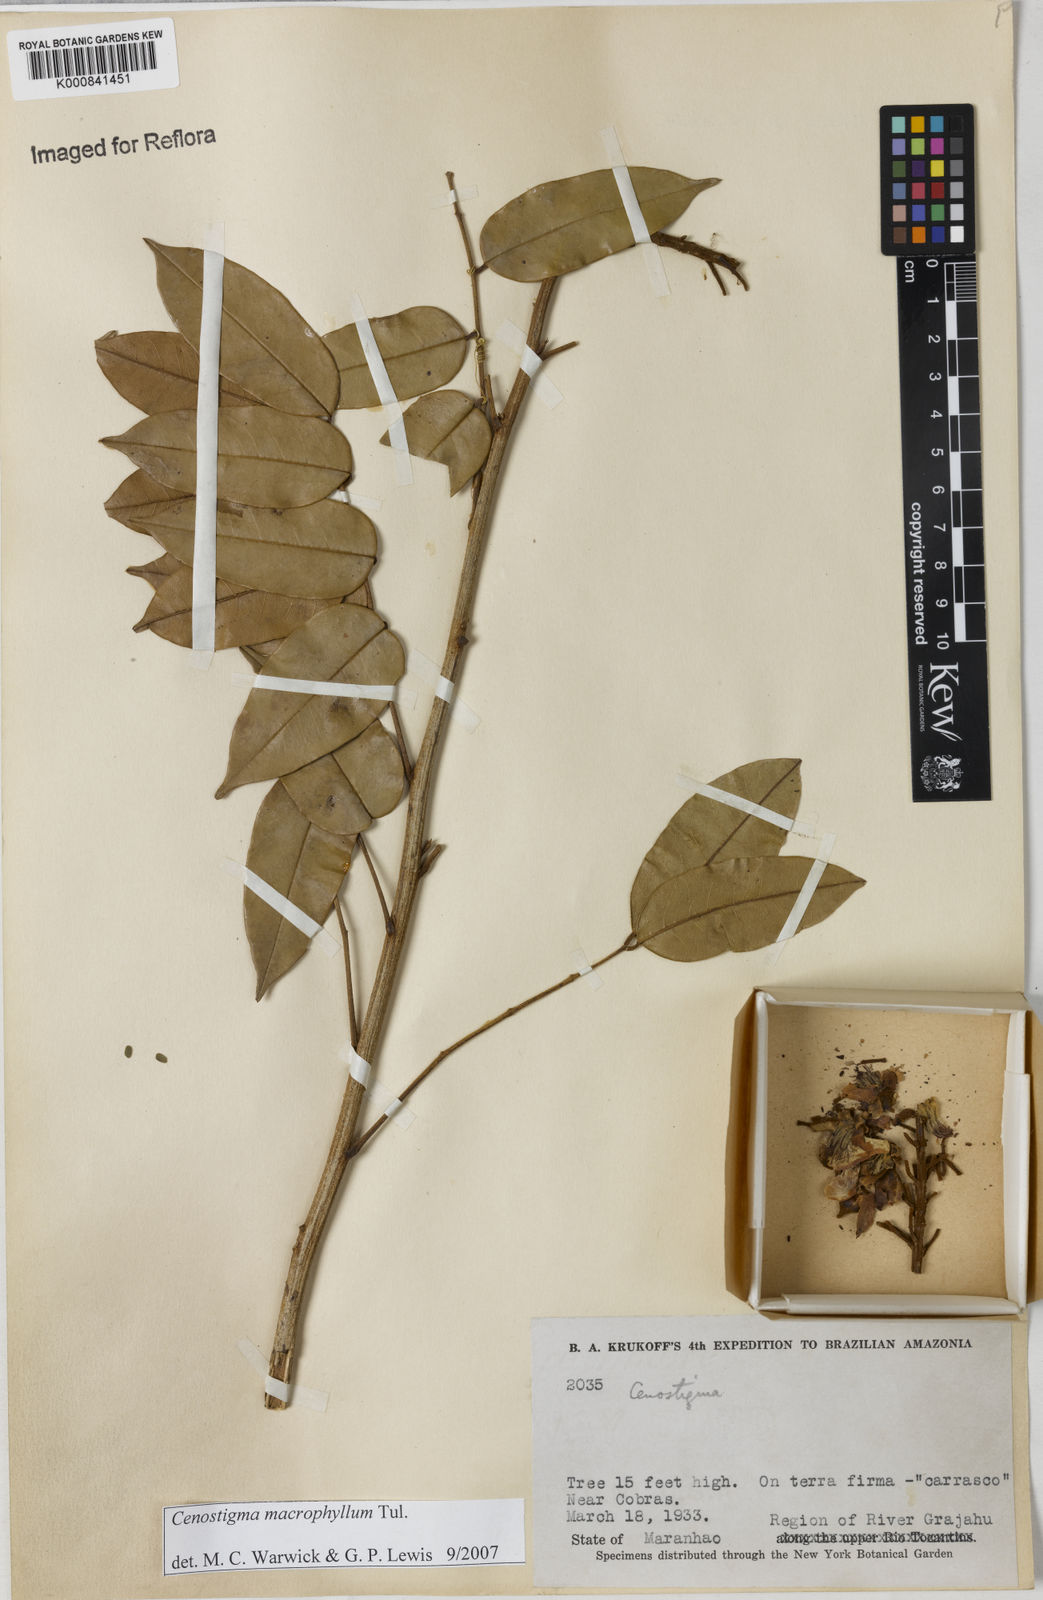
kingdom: Plantae
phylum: Tracheophyta
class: Magnoliopsida
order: Fabales
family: Fabaceae
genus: Cenostigma
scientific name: Cenostigma macrophyllum
